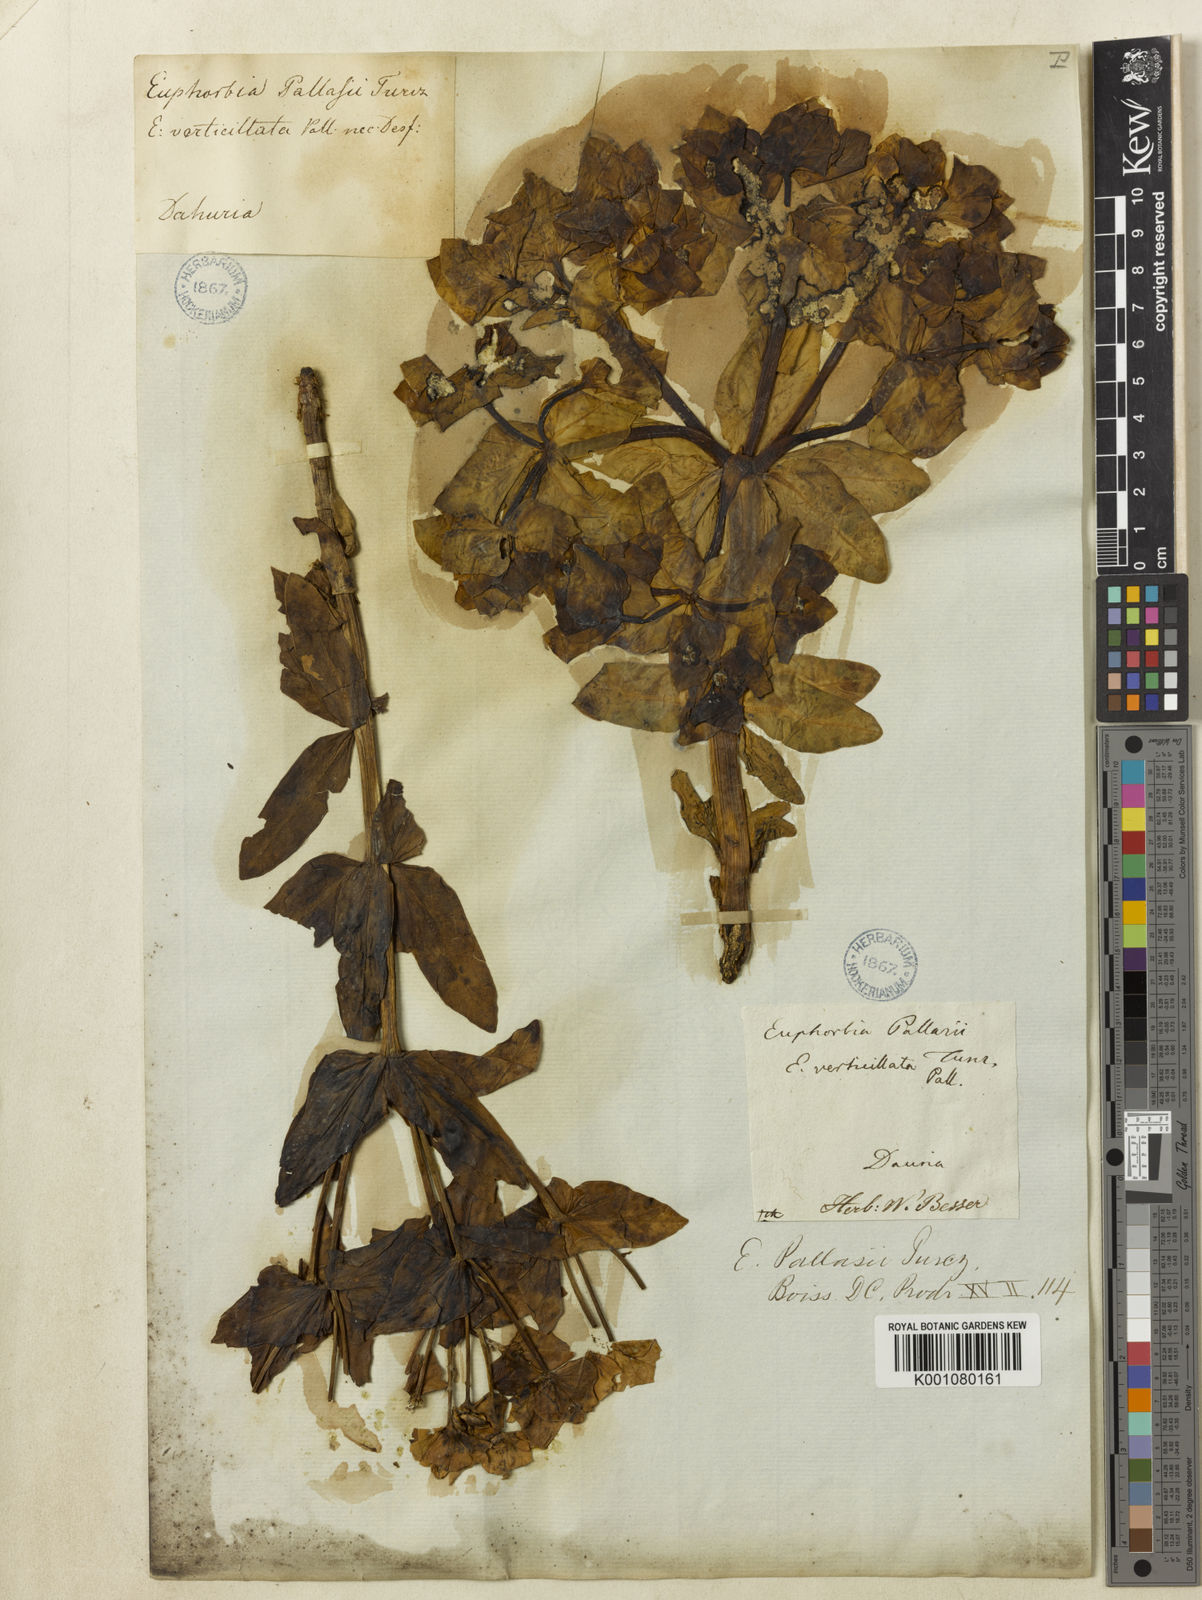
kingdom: Plantae
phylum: Tracheophyta
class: Magnoliopsida
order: Malpighiales
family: Euphorbiaceae
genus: Euphorbia
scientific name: Euphorbia
